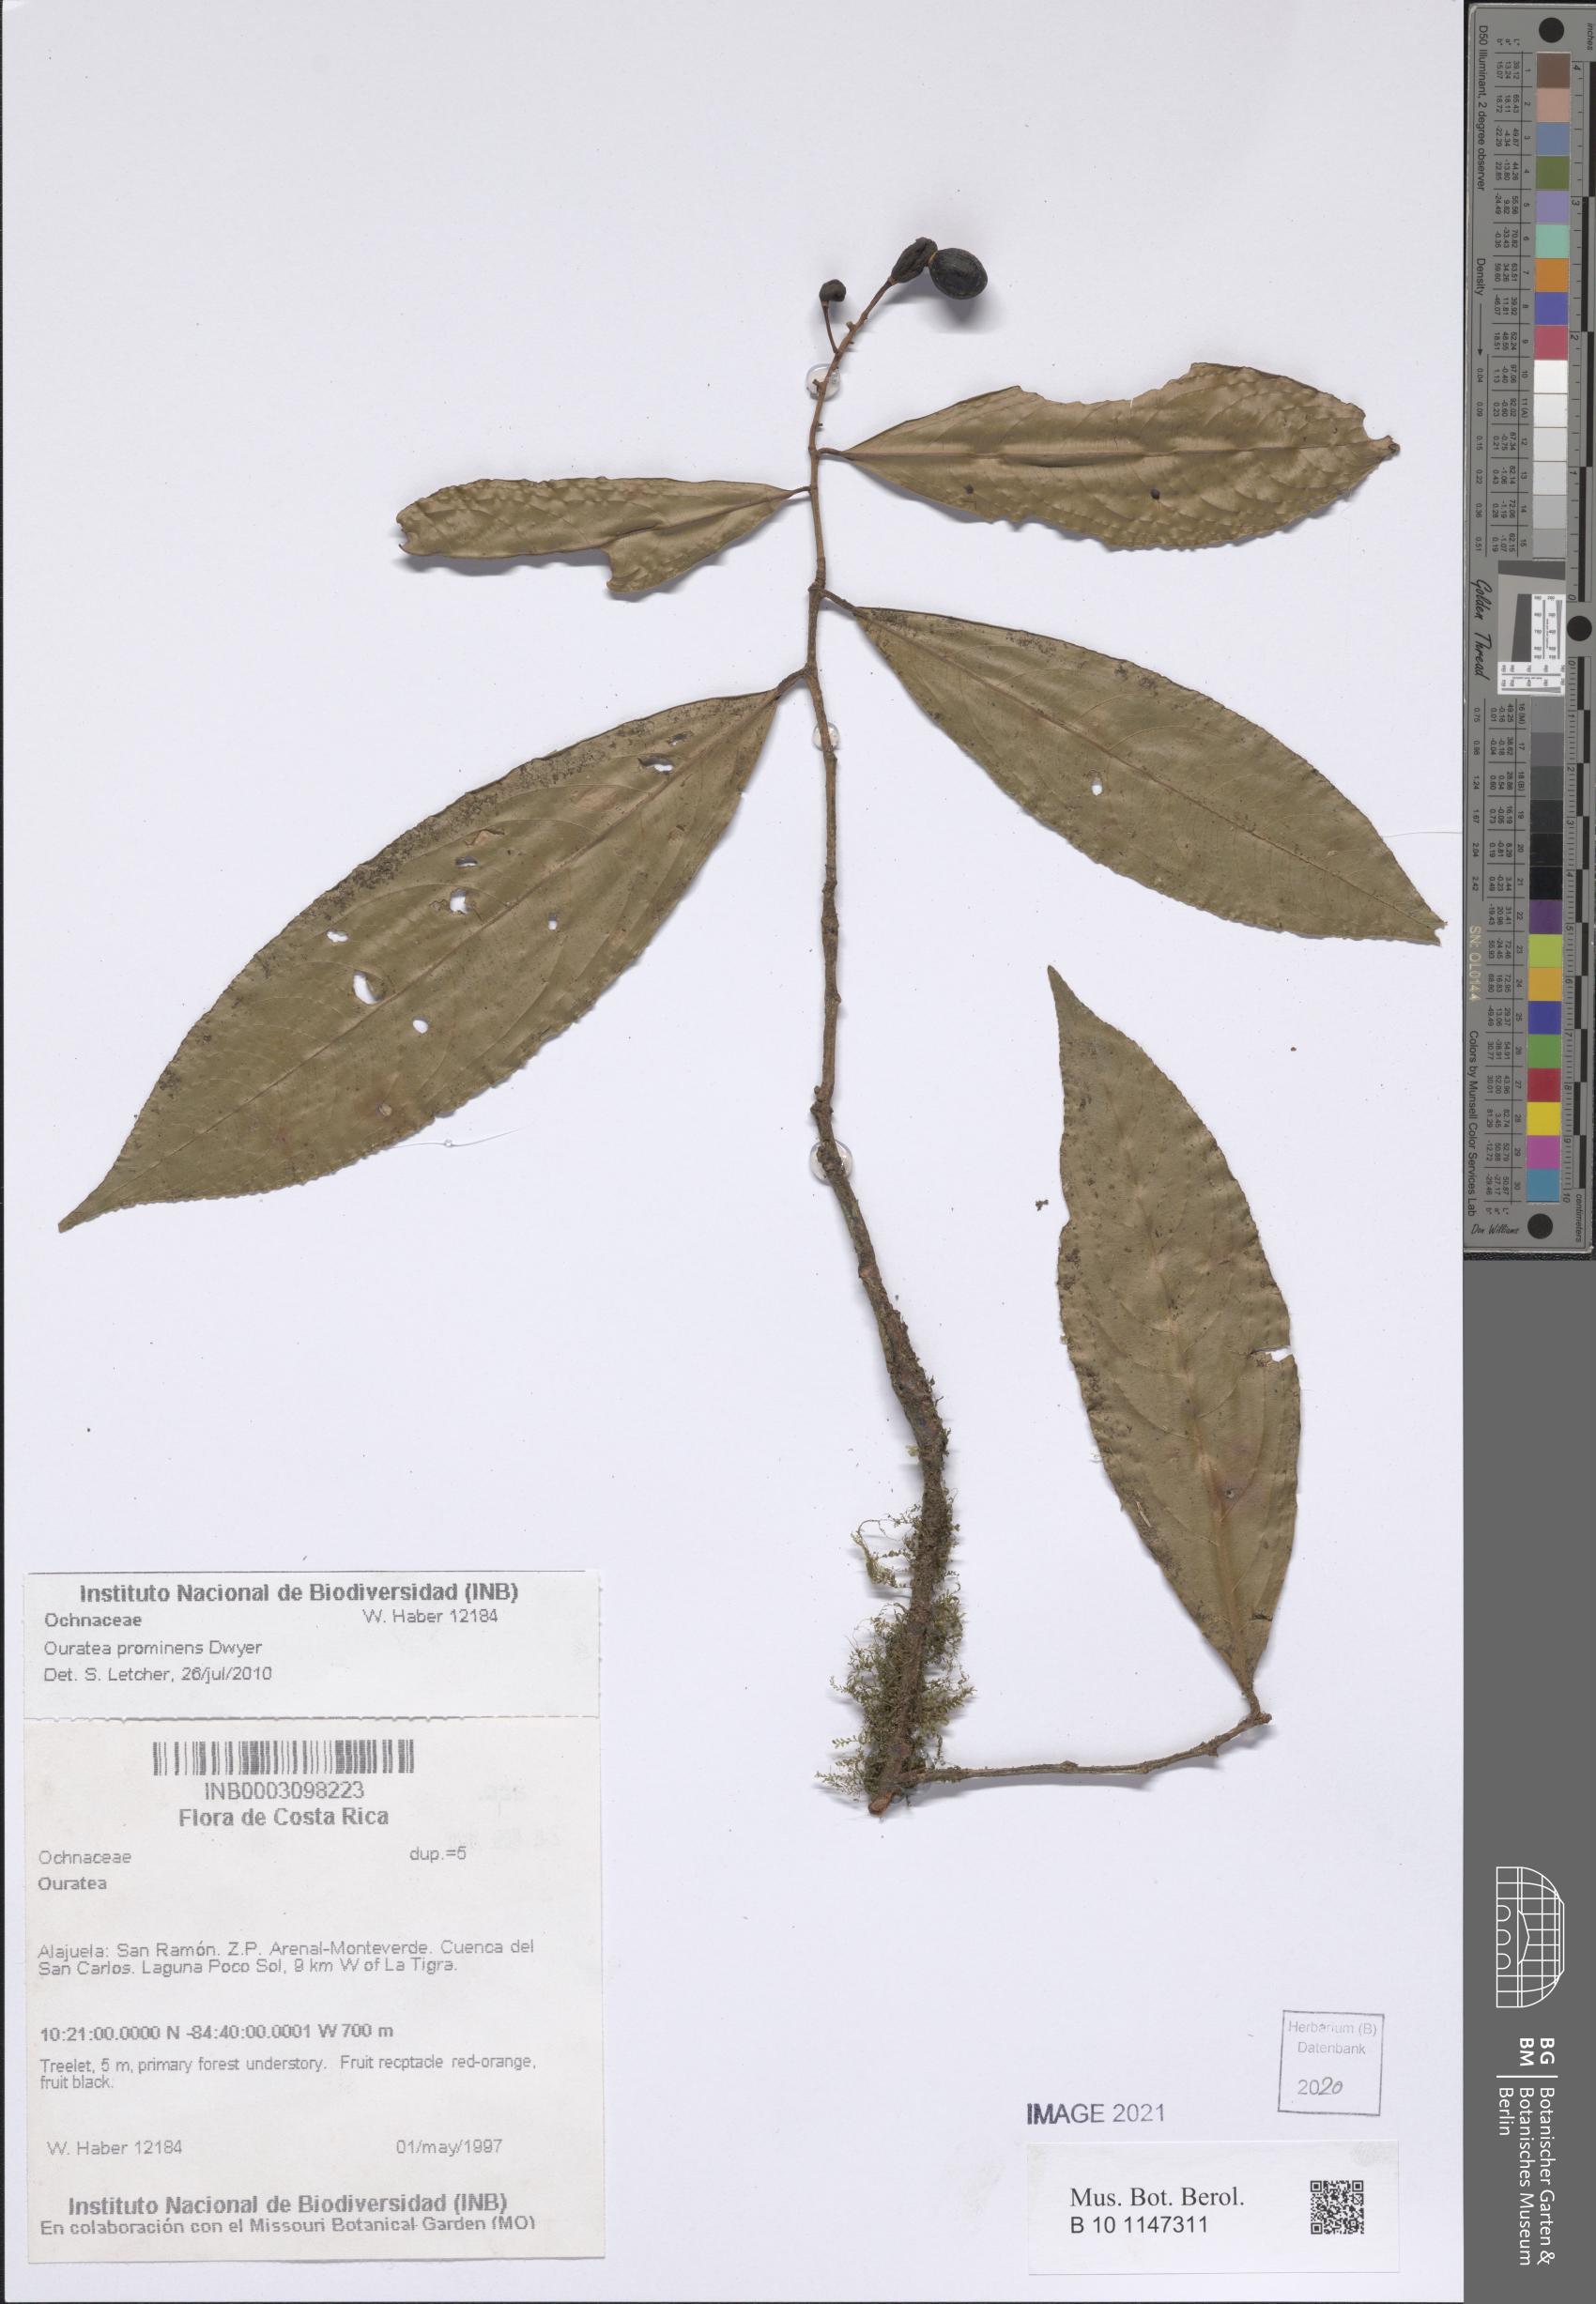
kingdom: Plantae
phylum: Tracheophyta
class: Magnoliopsida
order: Malpighiales
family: Ochnaceae
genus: Ouratea
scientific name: Ouratea prominens
